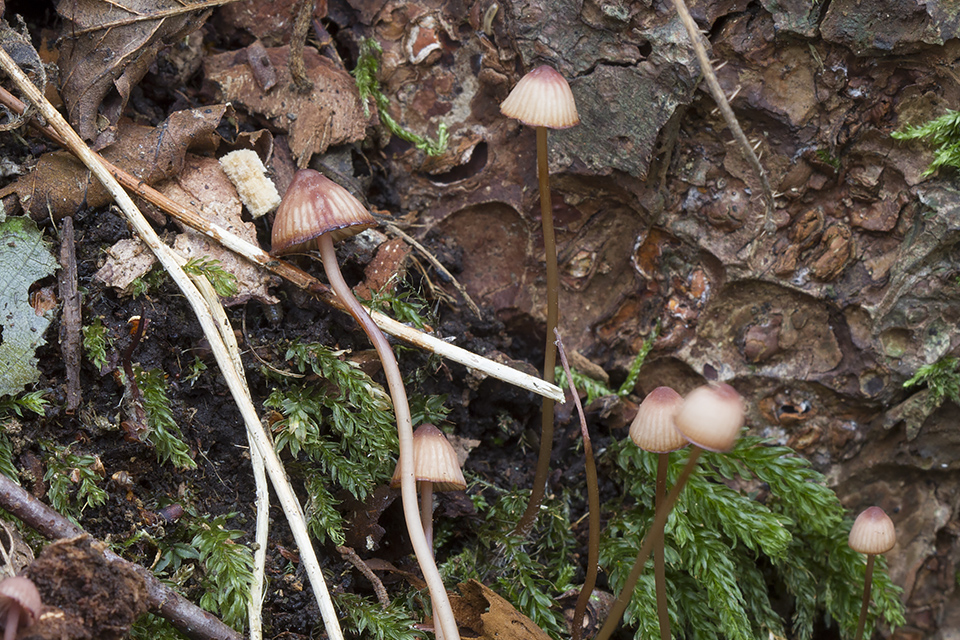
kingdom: Fungi
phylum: Basidiomycota
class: Agaricomycetes
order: Agaricales
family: Mycenaceae
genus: Mycena
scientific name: Mycena sanguinolenta
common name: rødmælket huesvamp
